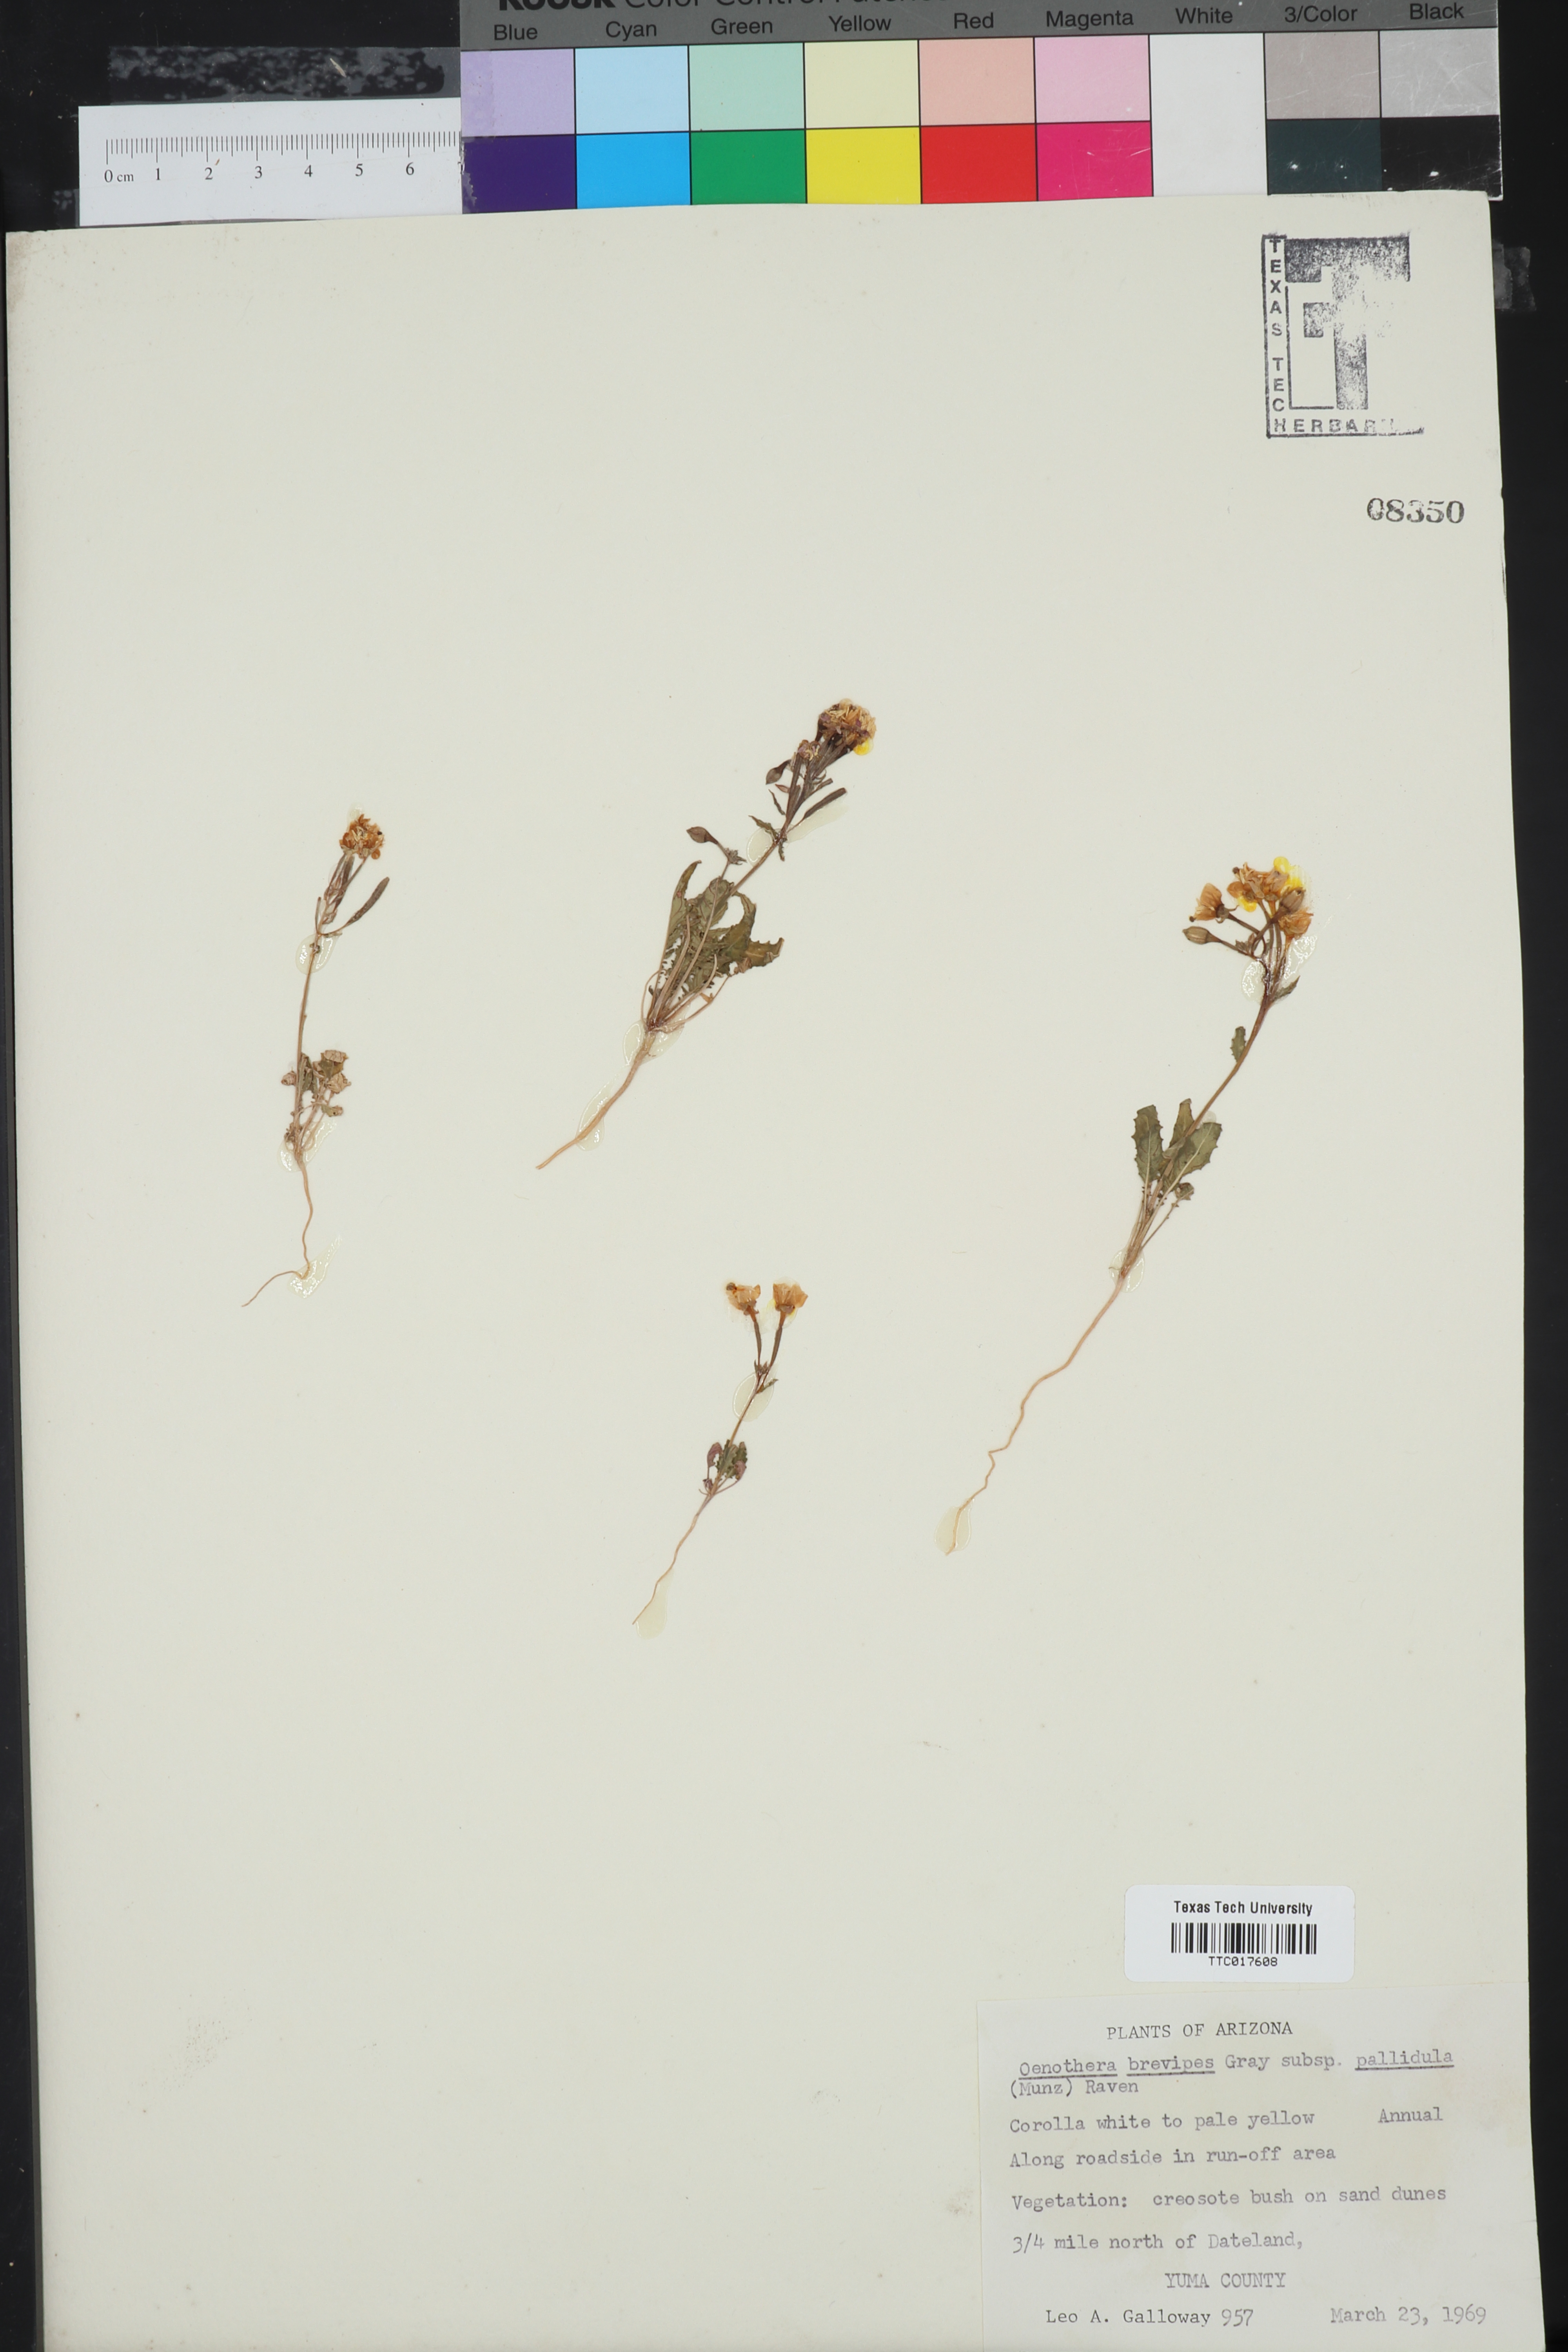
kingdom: Plantae
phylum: Tracheophyta
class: Magnoliopsida
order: Myrtales
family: Onagraceae
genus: Chylismia
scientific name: Chylismia brevipes
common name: Yellow cups
